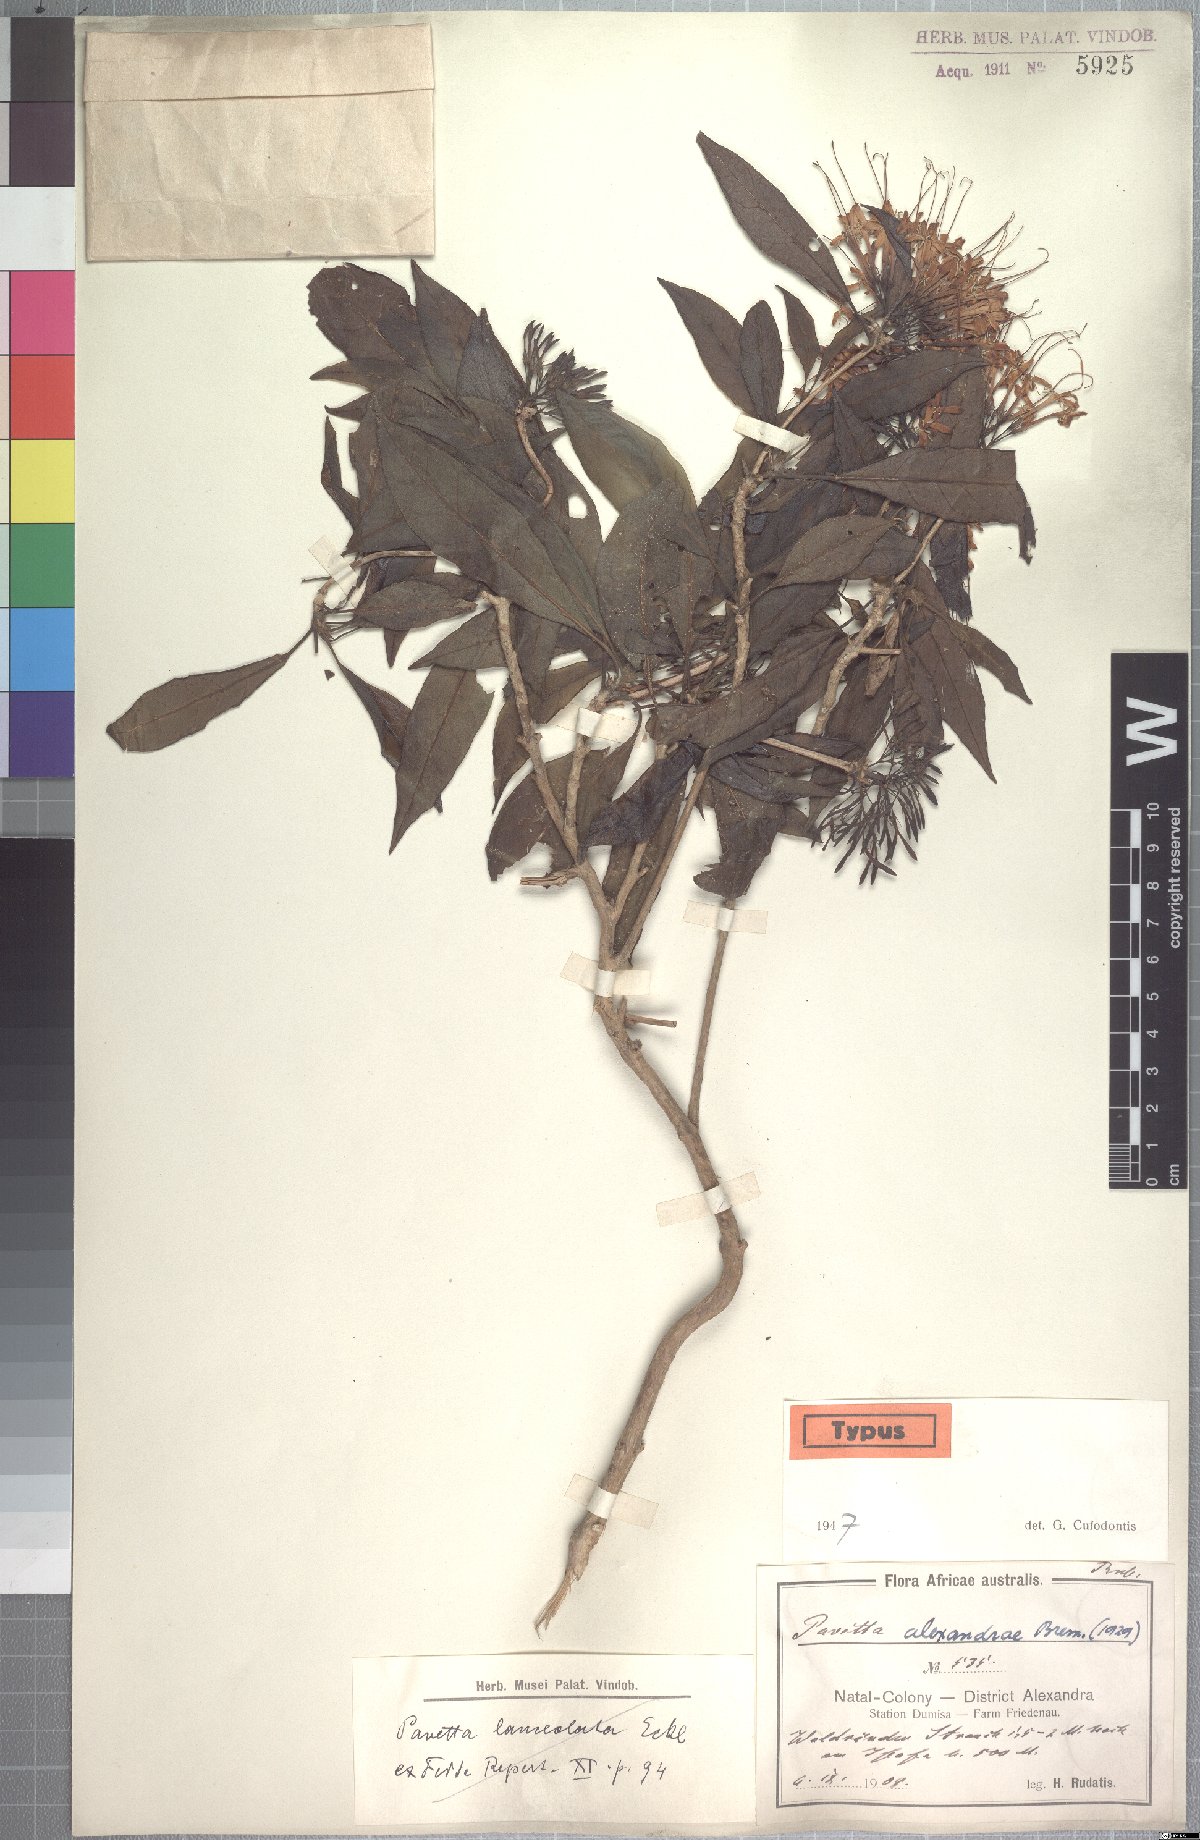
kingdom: Plantae
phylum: Tracheophyta
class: Magnoliopsida
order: Gentianales
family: Rubiaceae
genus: Pavetta
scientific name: Pavetta lanceolata
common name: Weeping brides-bush
